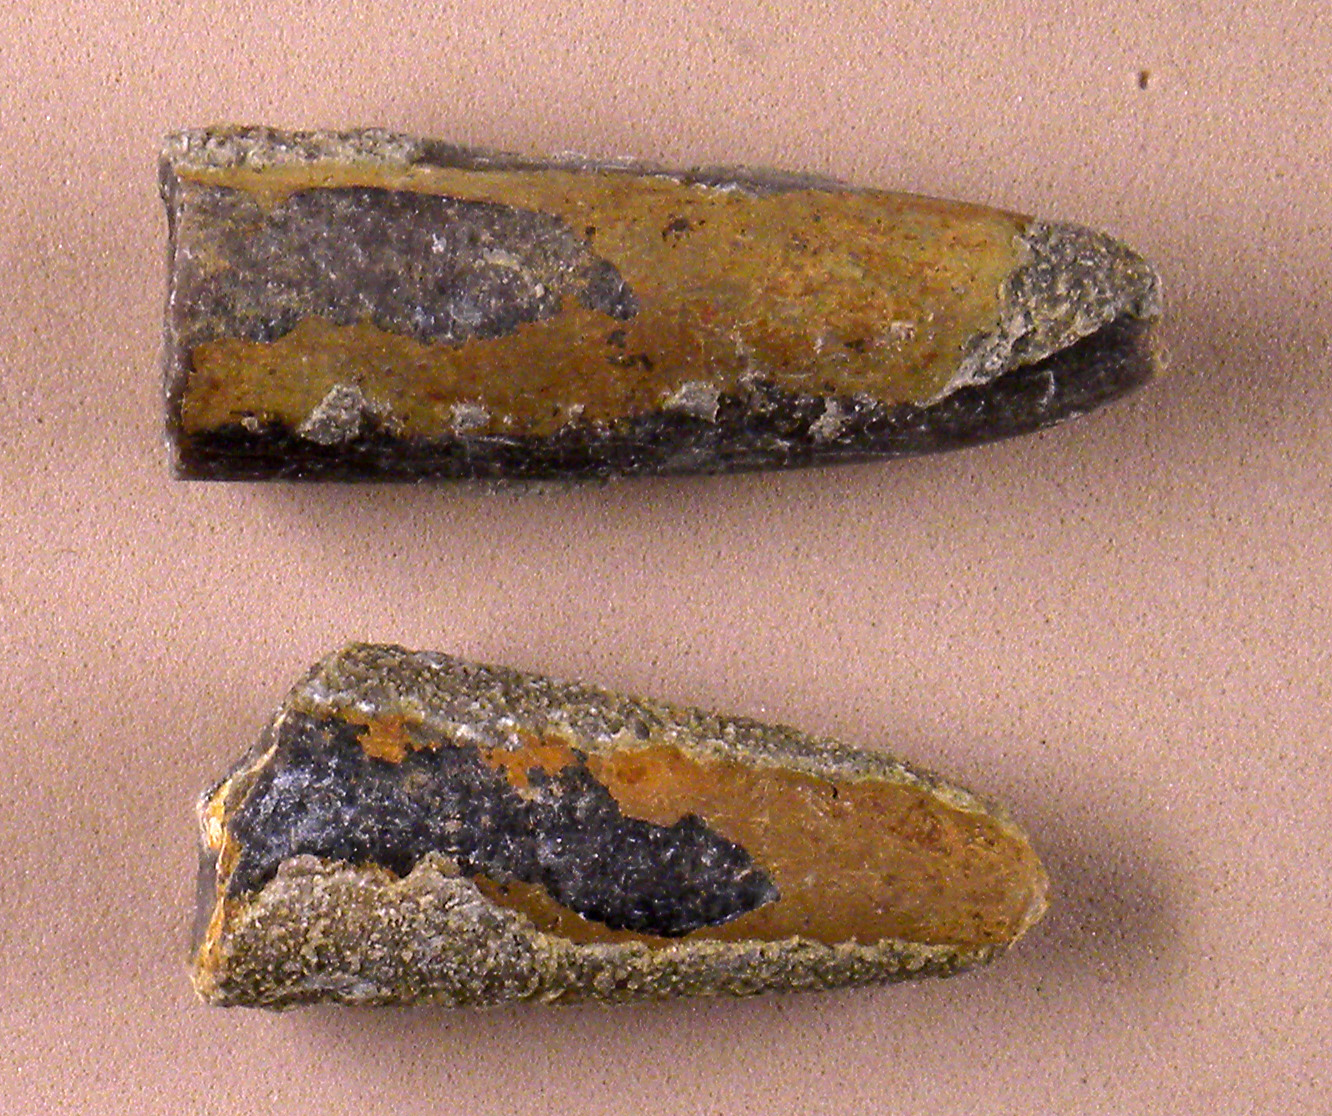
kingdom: Animalia
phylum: Mollusca
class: Cephalopoda
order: Belemnitida
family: Megateuthididae
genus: Dactyloteuthis
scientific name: Dactyloteuthis irregularis
